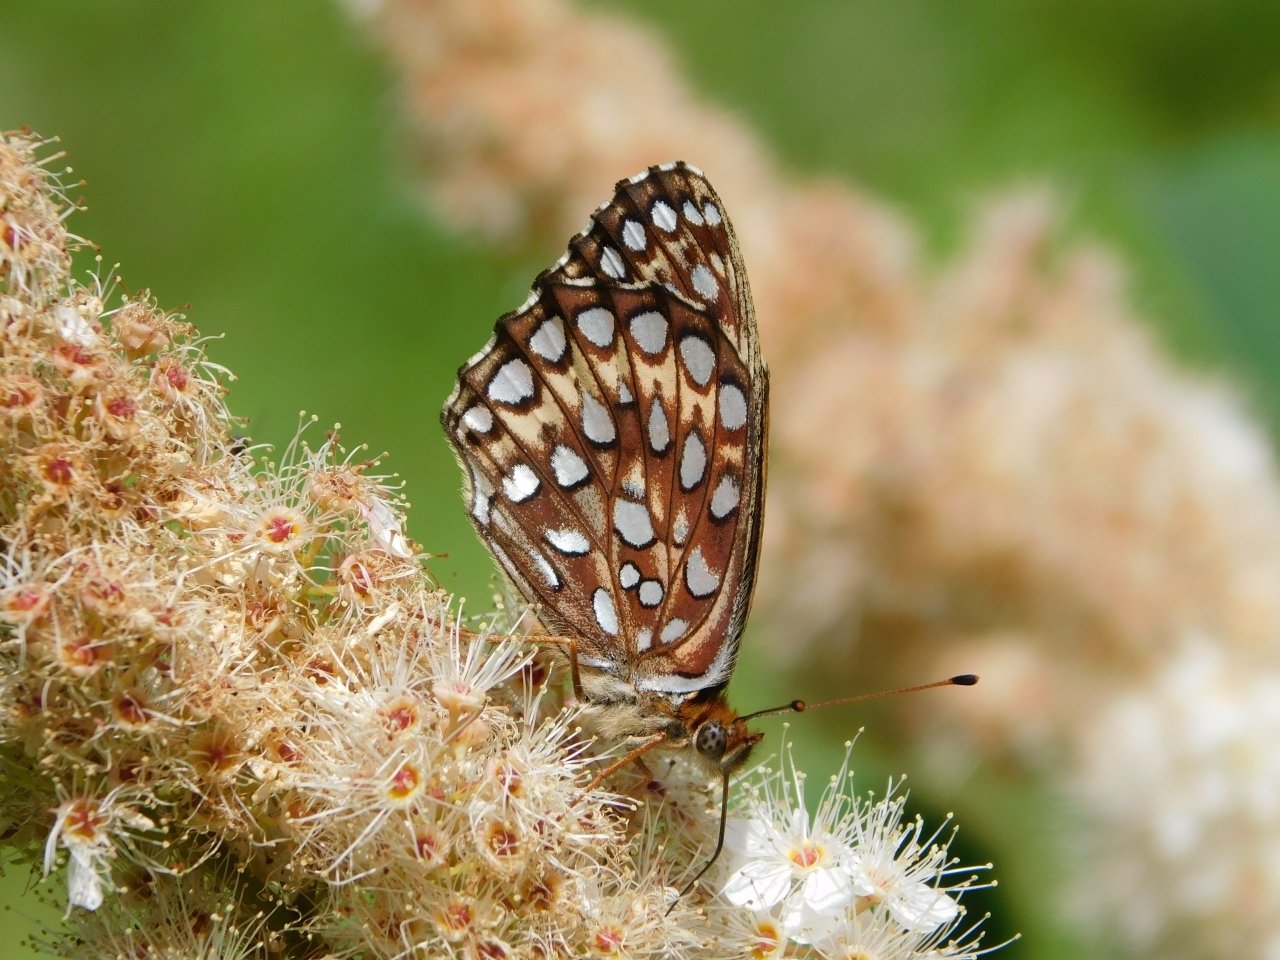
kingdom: Animalia
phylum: Arthropoda
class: Insecta
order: Lepidoptera
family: Nymphalidae
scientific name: Nymphalidae
